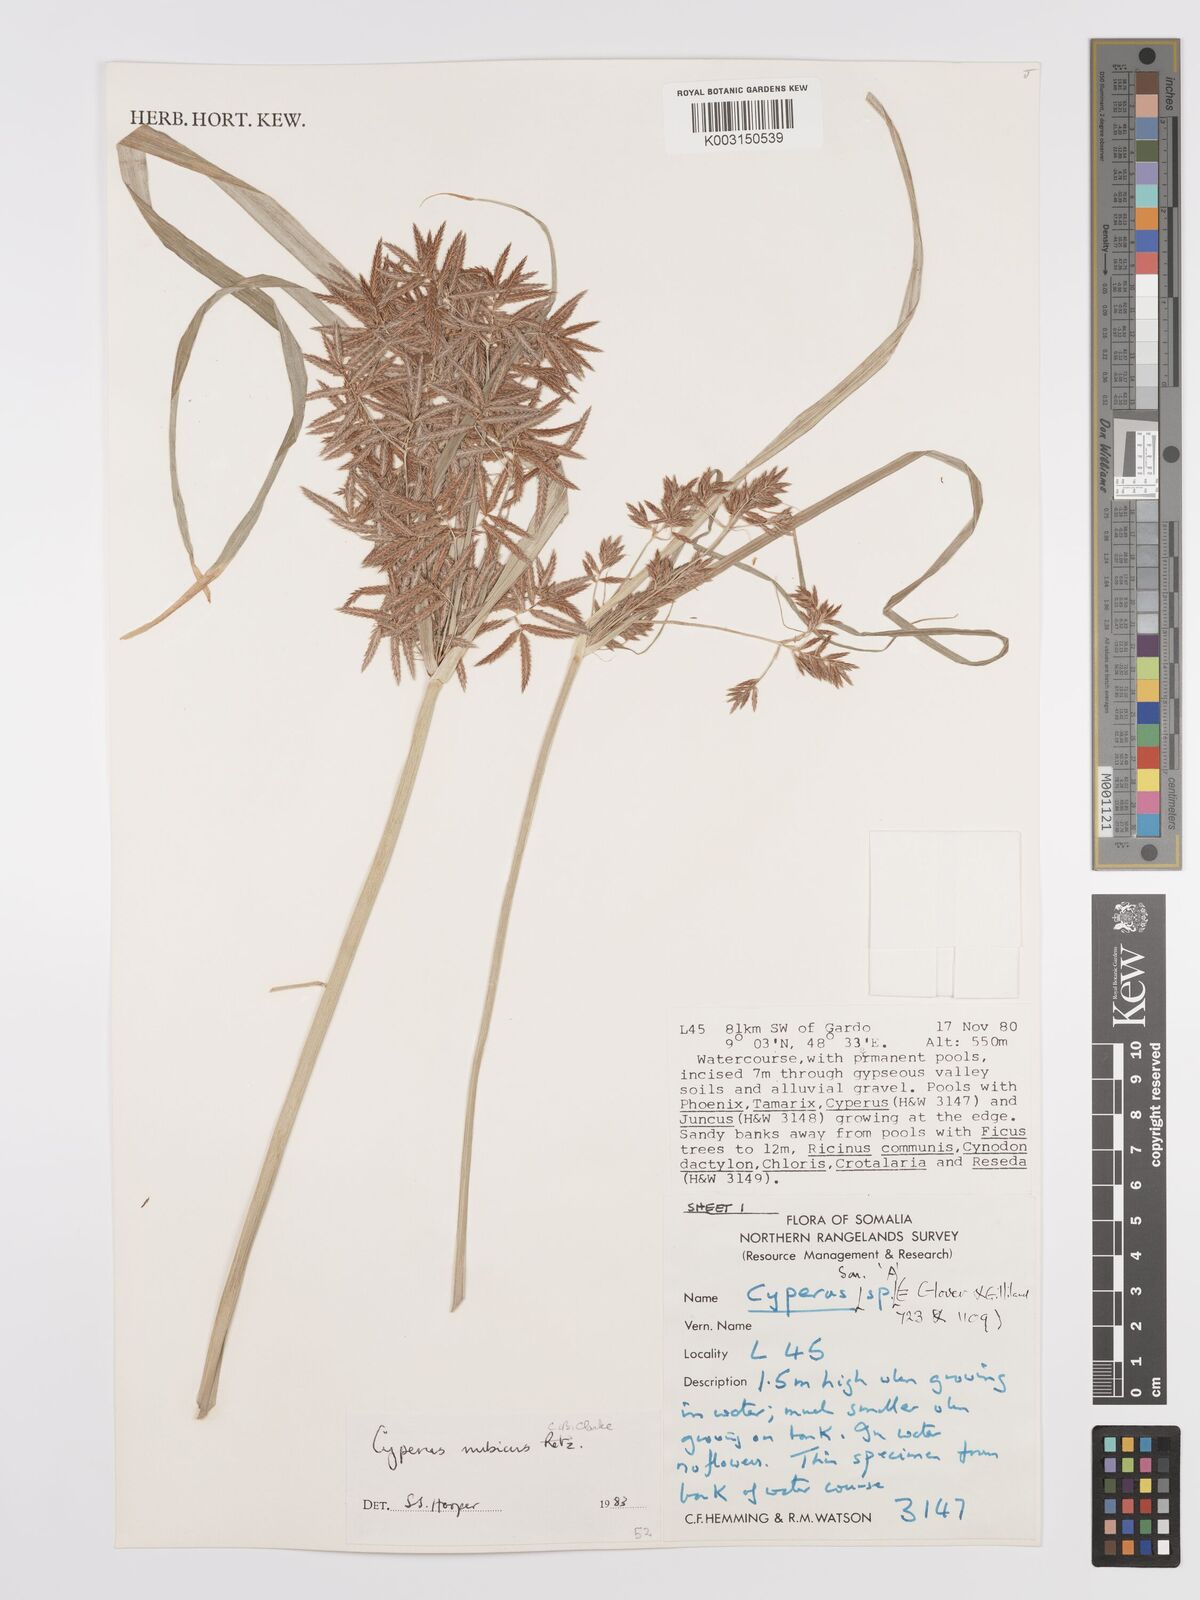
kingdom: Plantae
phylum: Tracheophyta
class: Liliopsida
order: Poales
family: Cyperaceae
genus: Cyperus
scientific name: Cyperus bifax
